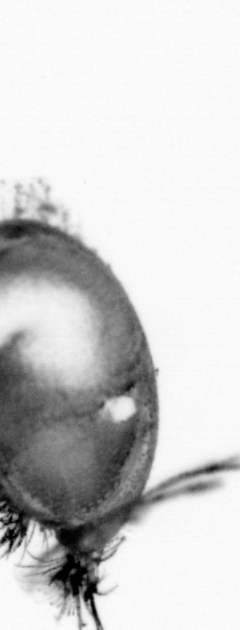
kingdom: Animalia
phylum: Annelida
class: Polychaeta
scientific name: Polychaeta
